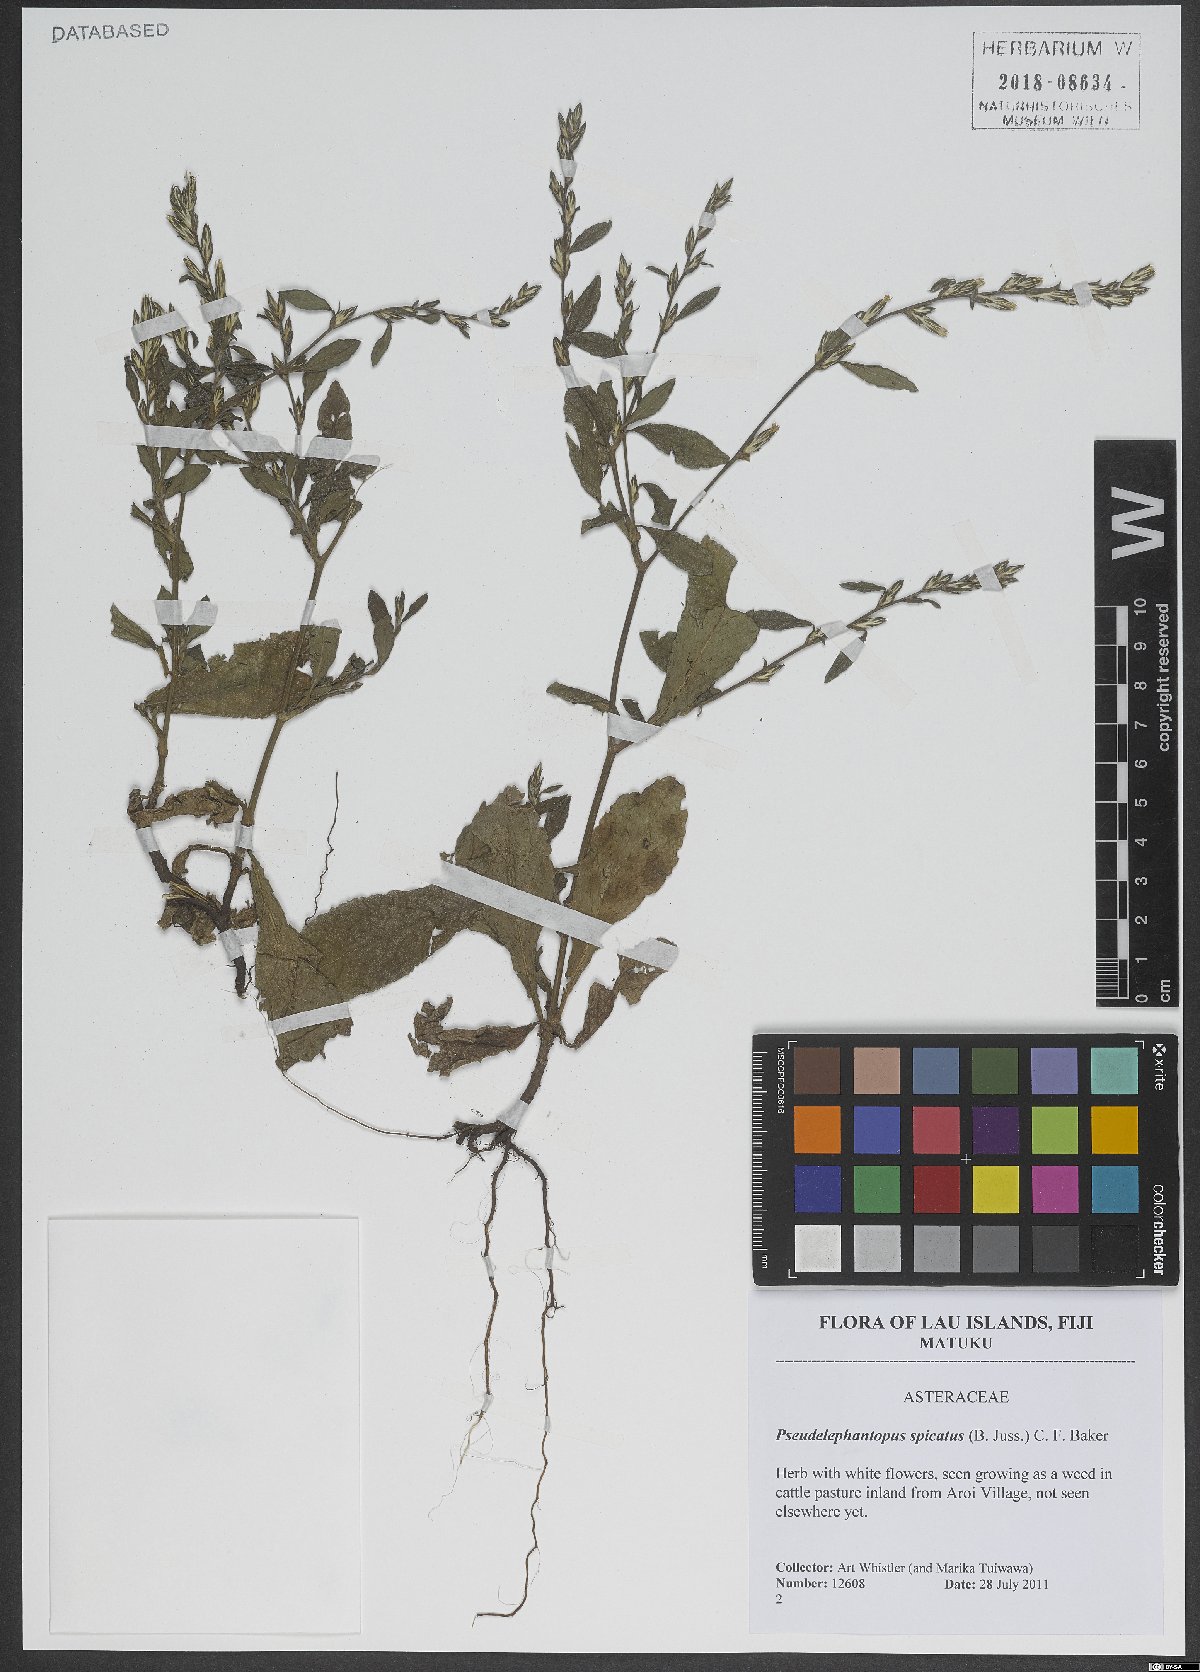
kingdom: Plantae
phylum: Tracheophyta
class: Magnoliopsida
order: Asterales
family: Asteraceae
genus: Pseudelephantopus
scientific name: Pseudelephantopus spicatus
